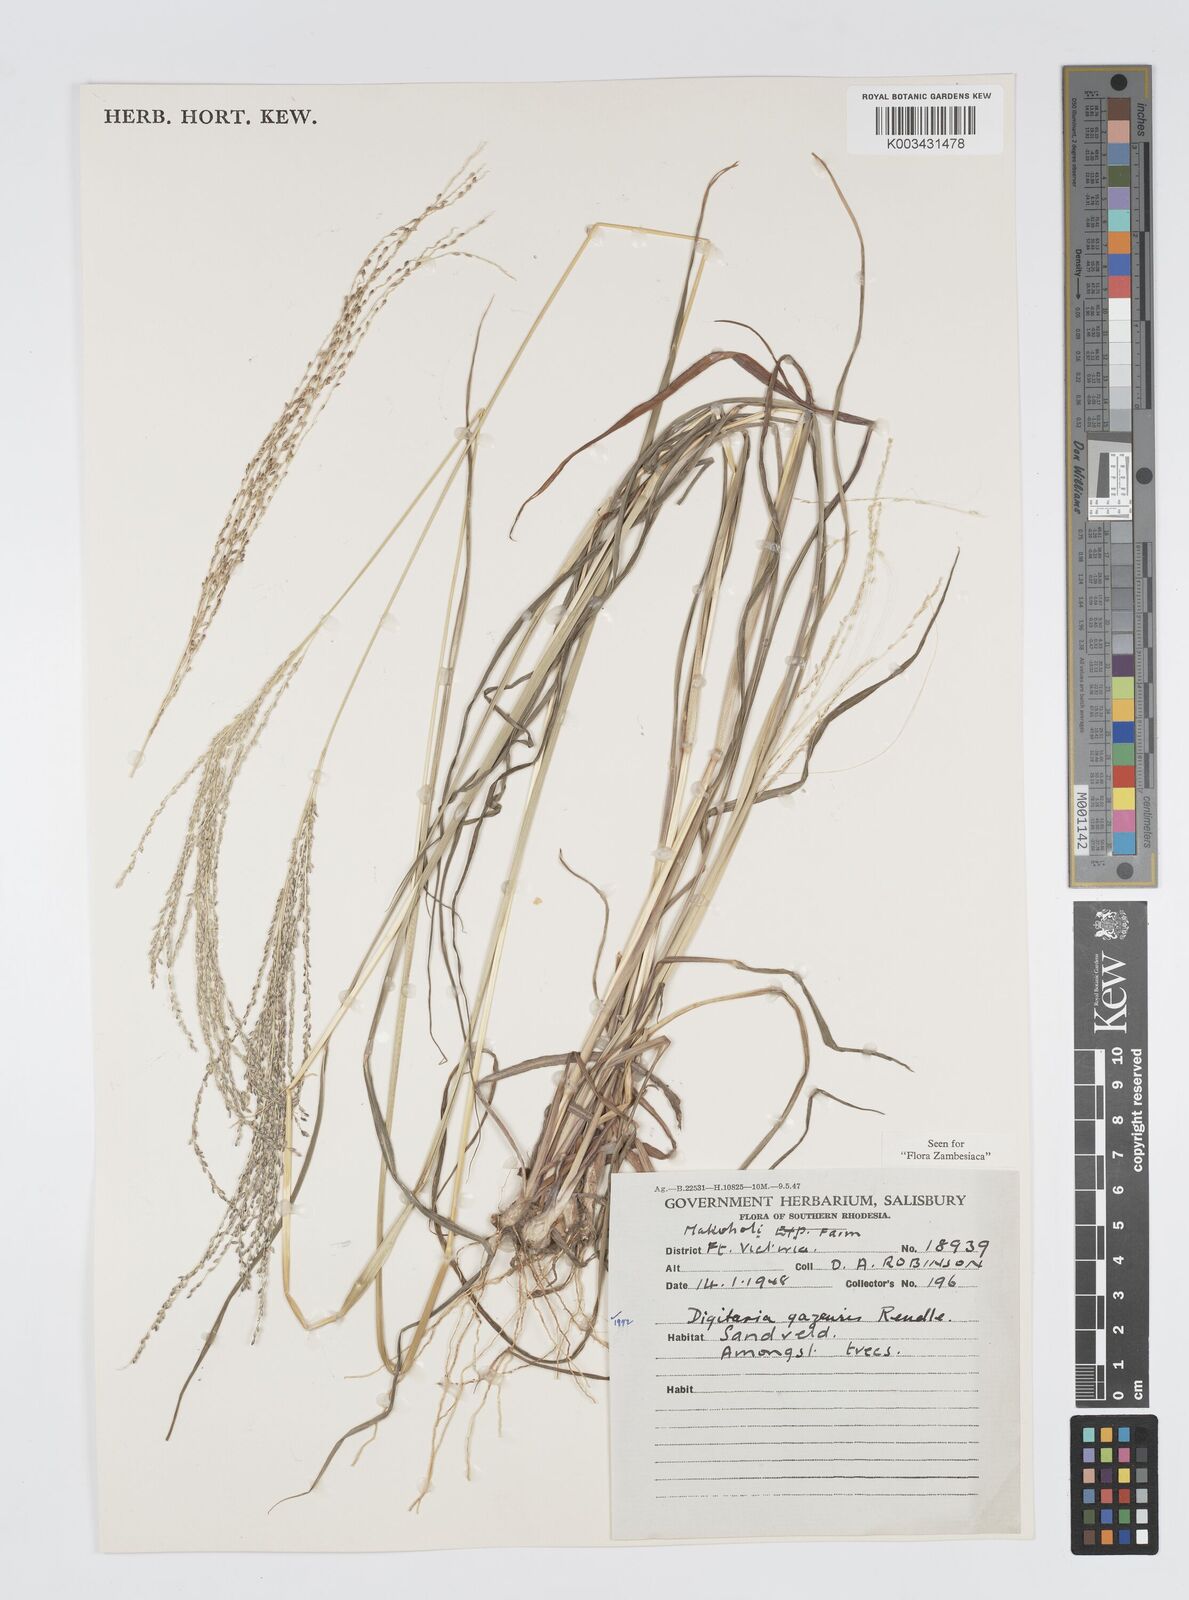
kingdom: Plantae
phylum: Tracheophyta
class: Liliopsida
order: Poales
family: Poaceae
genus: Digitaria
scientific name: Digitaria gazensis
